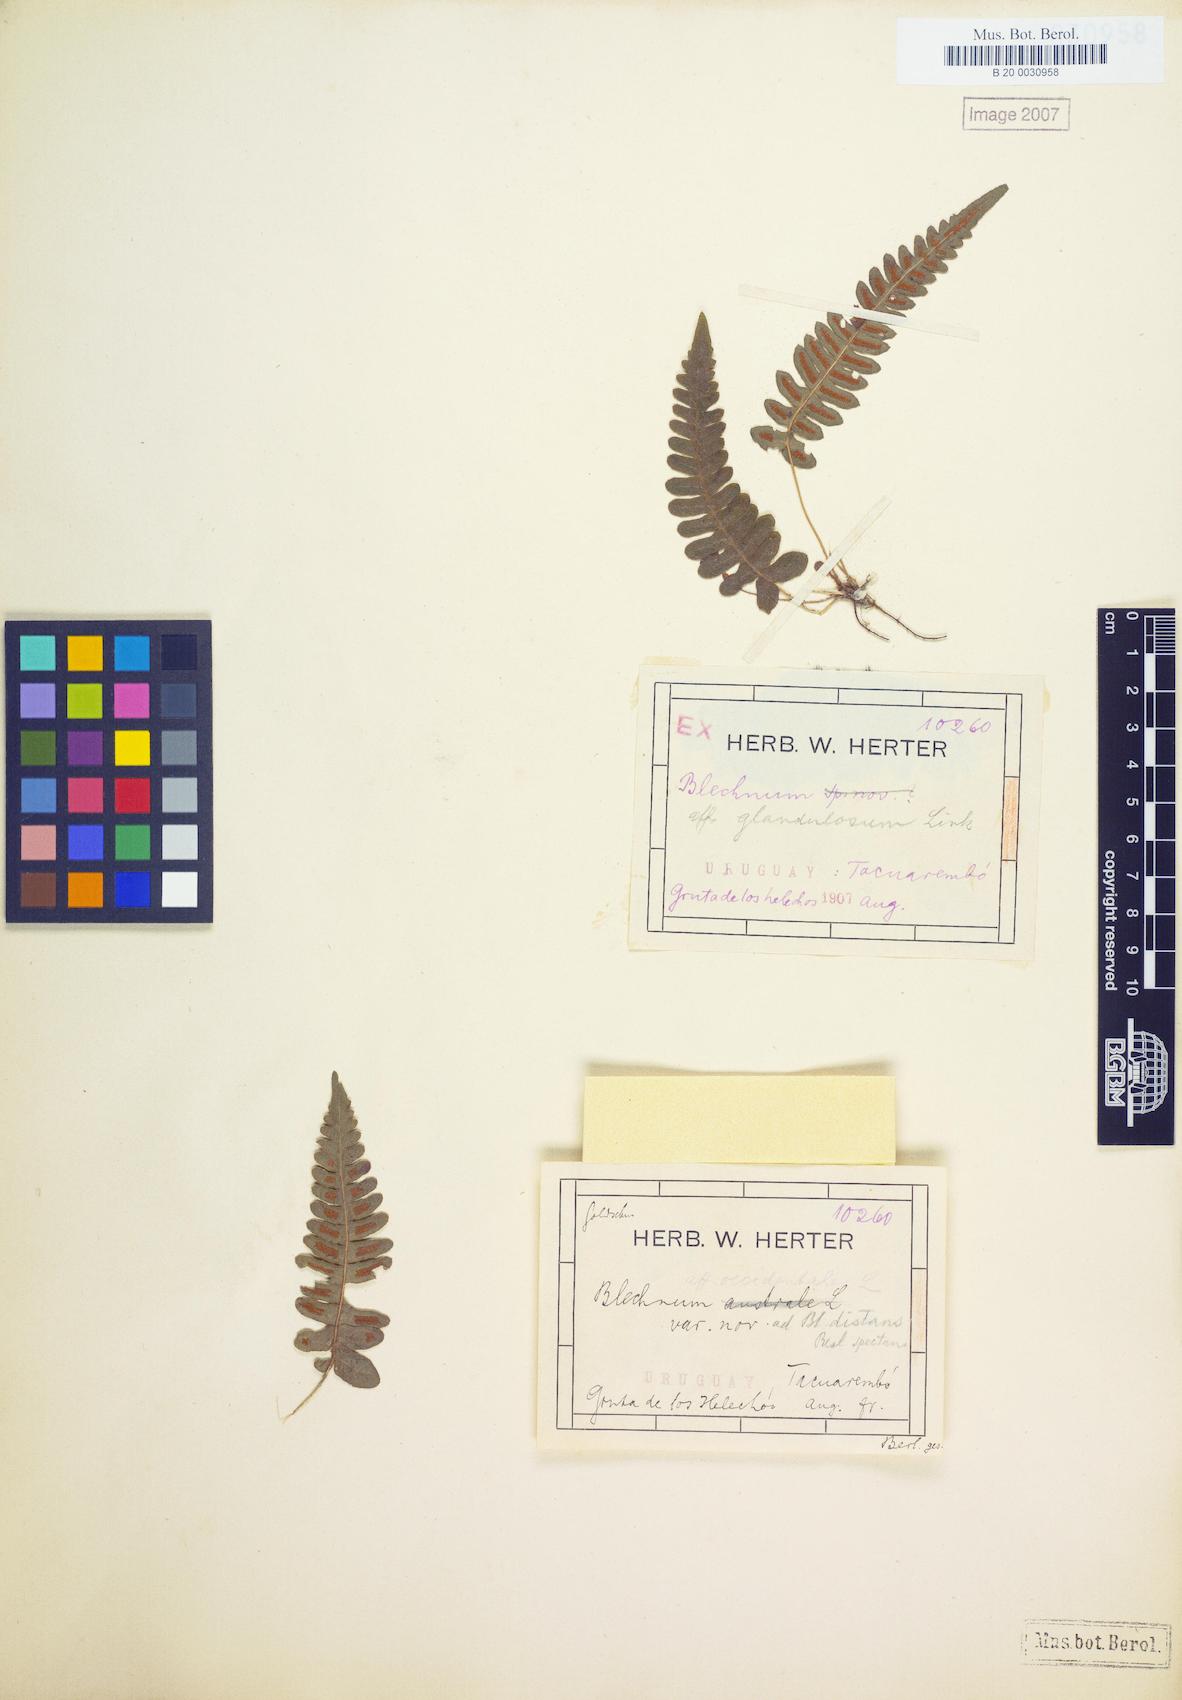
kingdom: Plantae
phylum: Tracheophyta
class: Polypodiopsida
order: Polypodiales
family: Blechnaceae
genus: Blechnum
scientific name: Blechnum laevigatum
